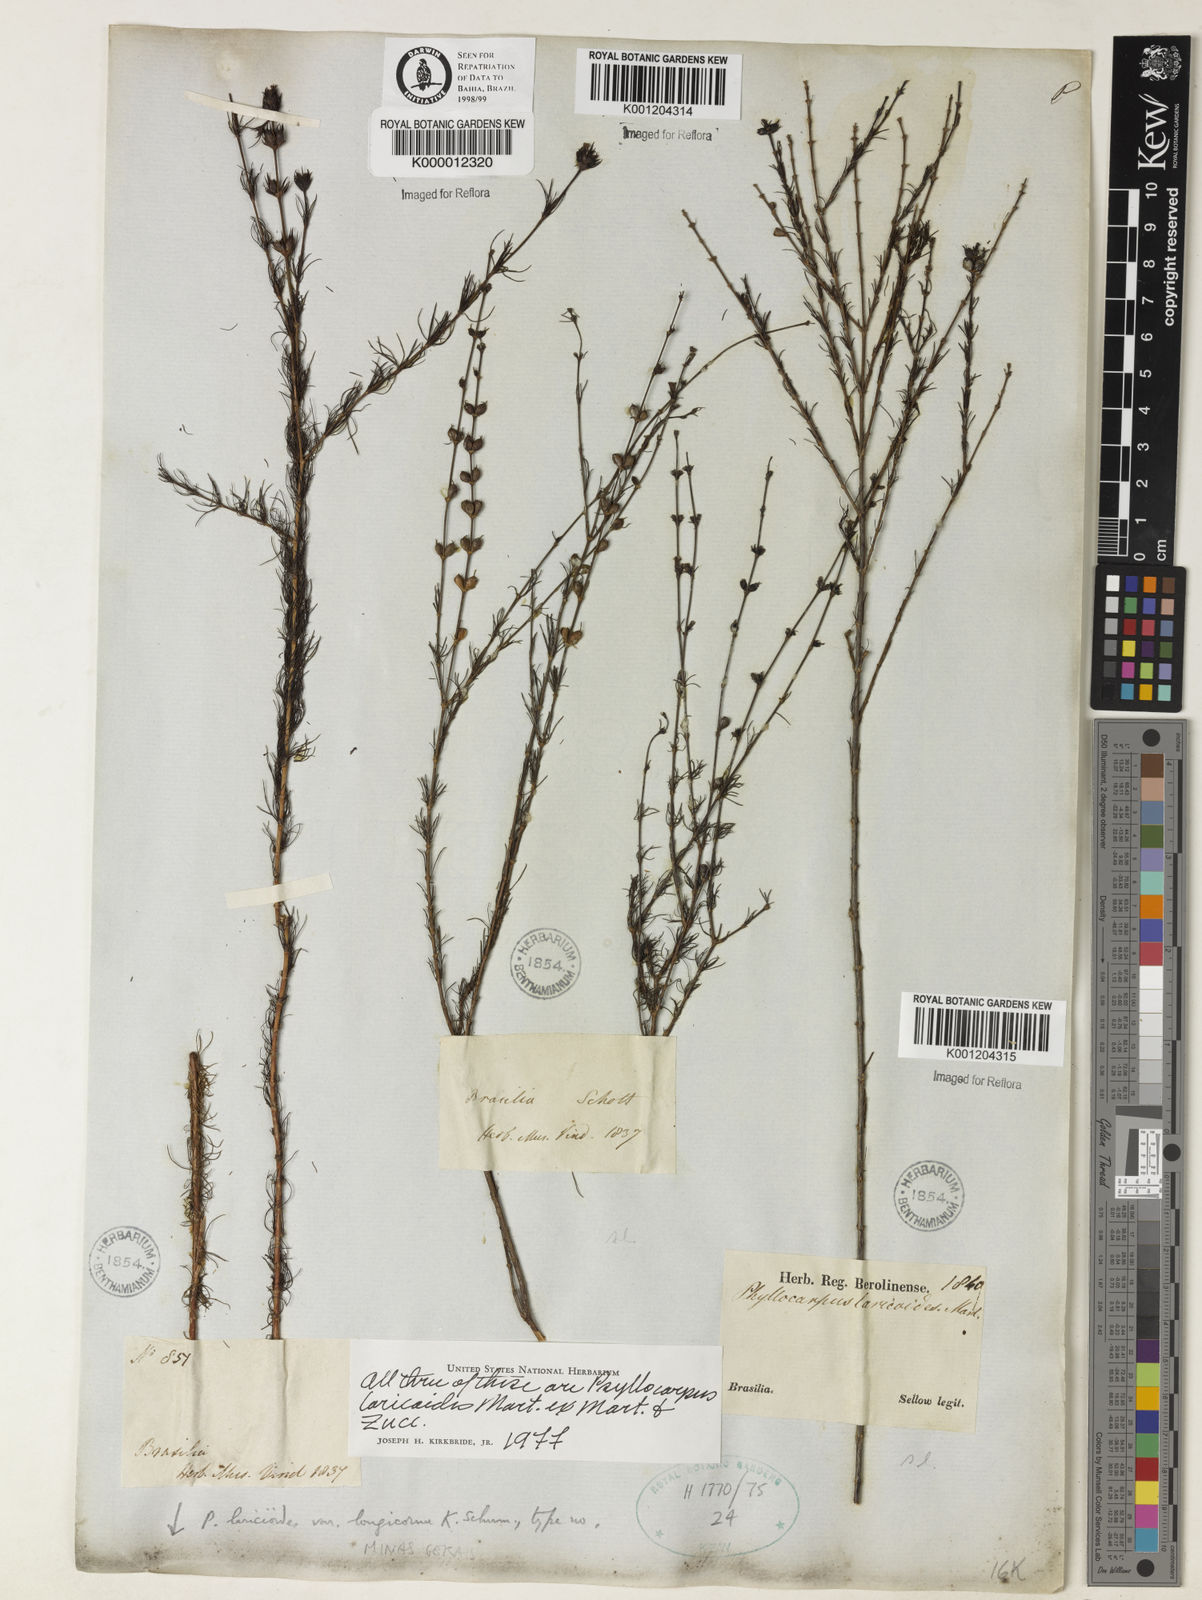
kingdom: Plantae
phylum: Tracheophyta
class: Magnoliopsida
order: Gentianales
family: Rubiaceae
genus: Psyllocarpus
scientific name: Psyllocarpus laricoides
